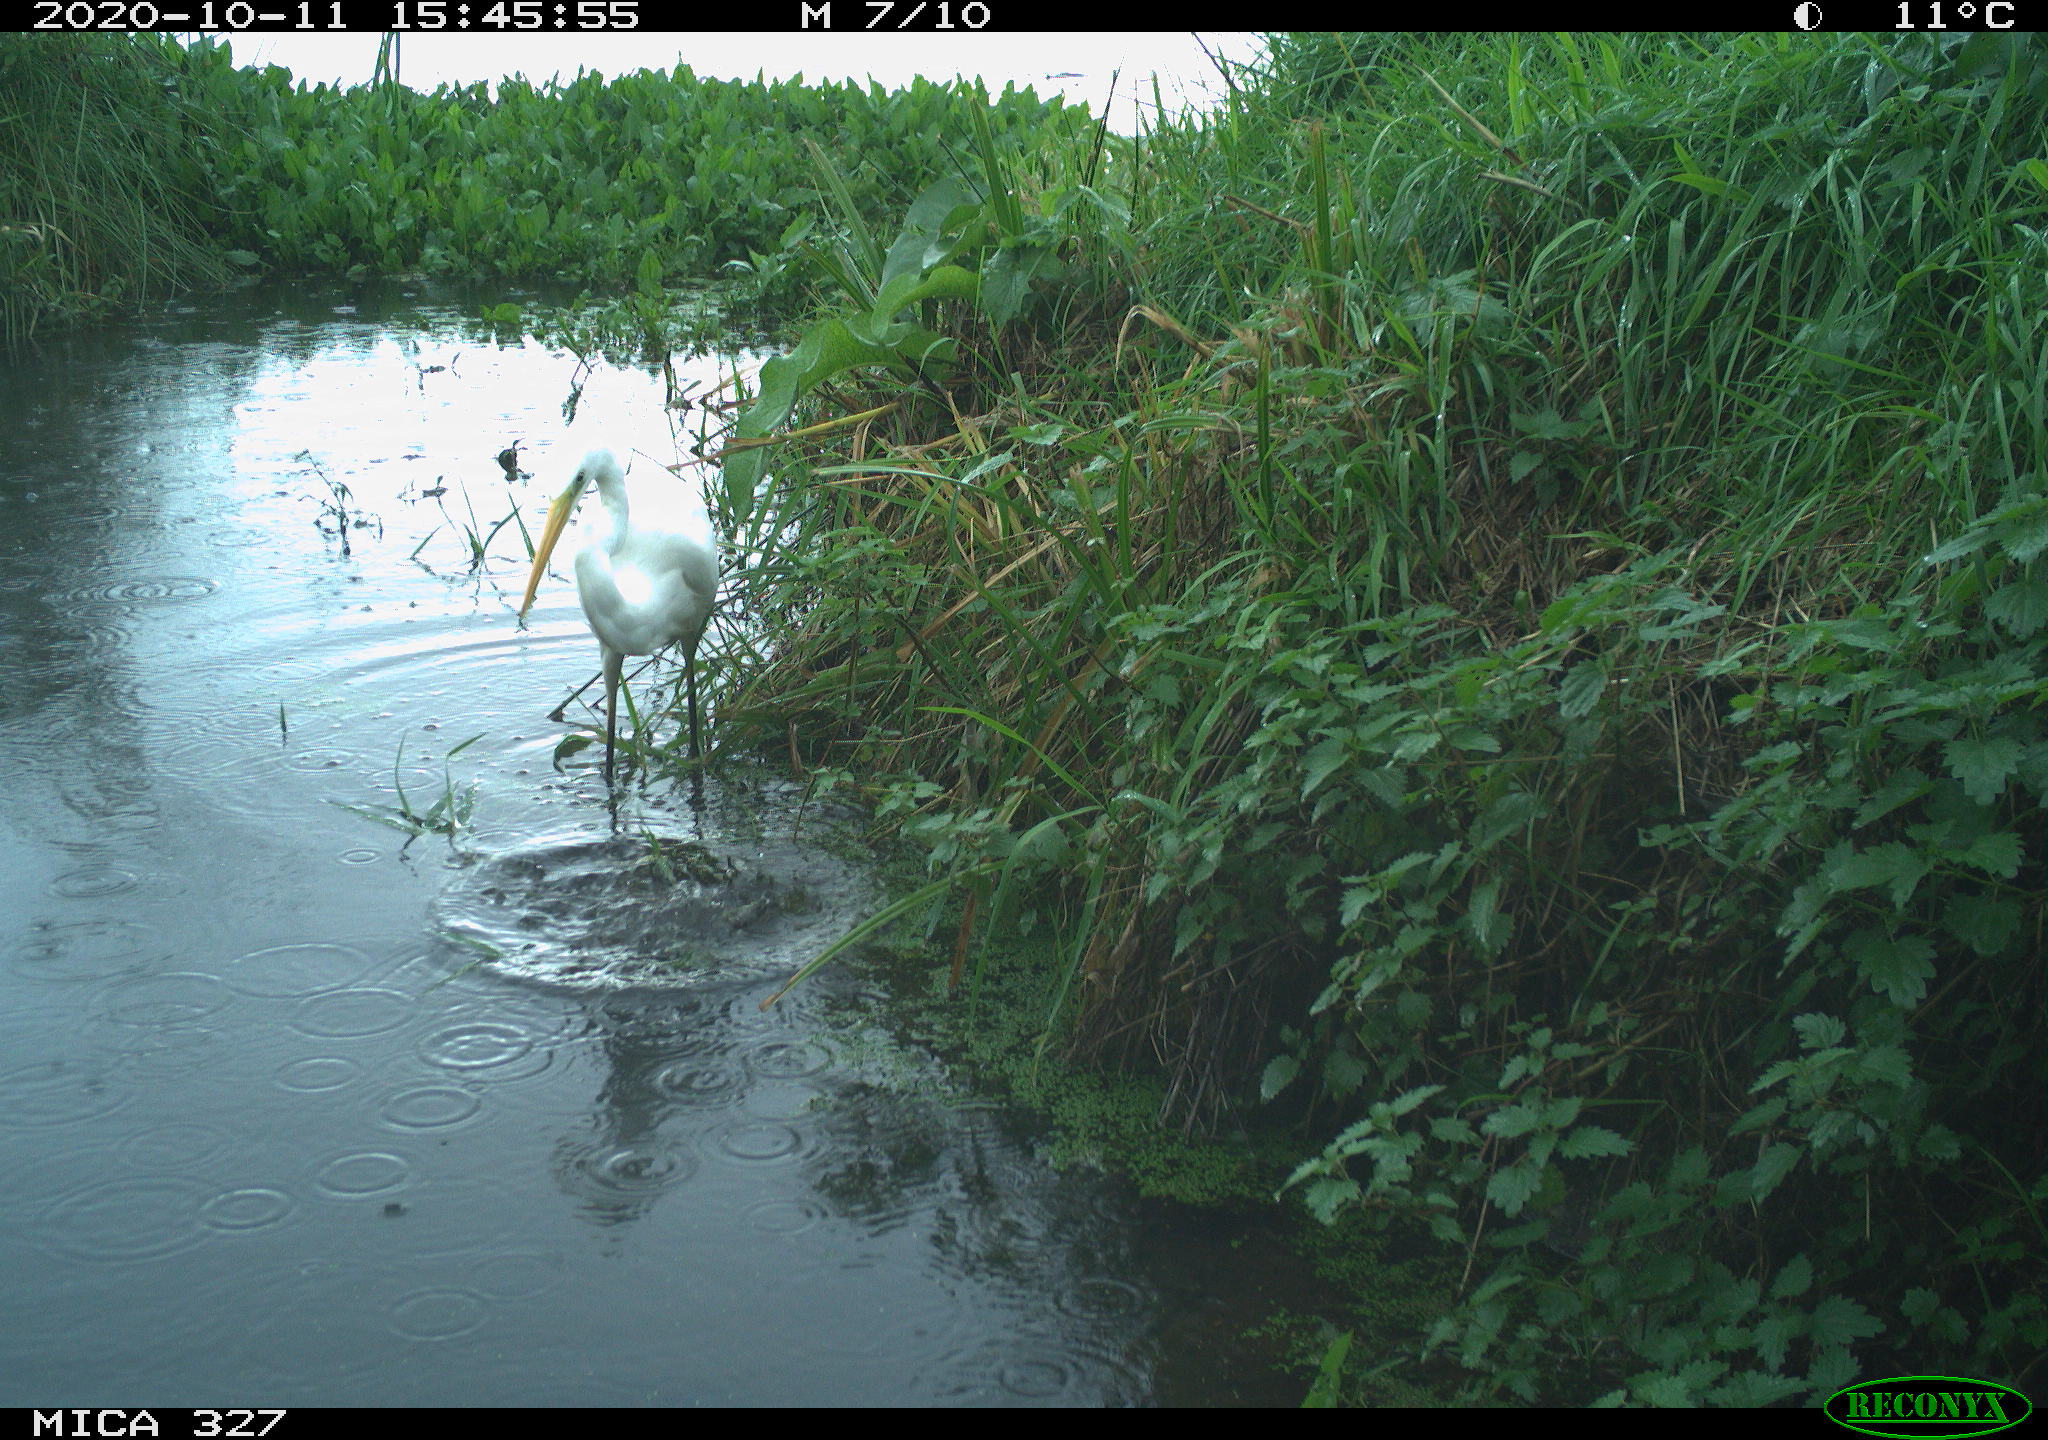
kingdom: Animalia
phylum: Chordata
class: Aves
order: Pelecaniformes
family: Ardeidae
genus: Ardea
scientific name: Ardea alba
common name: Great egret
